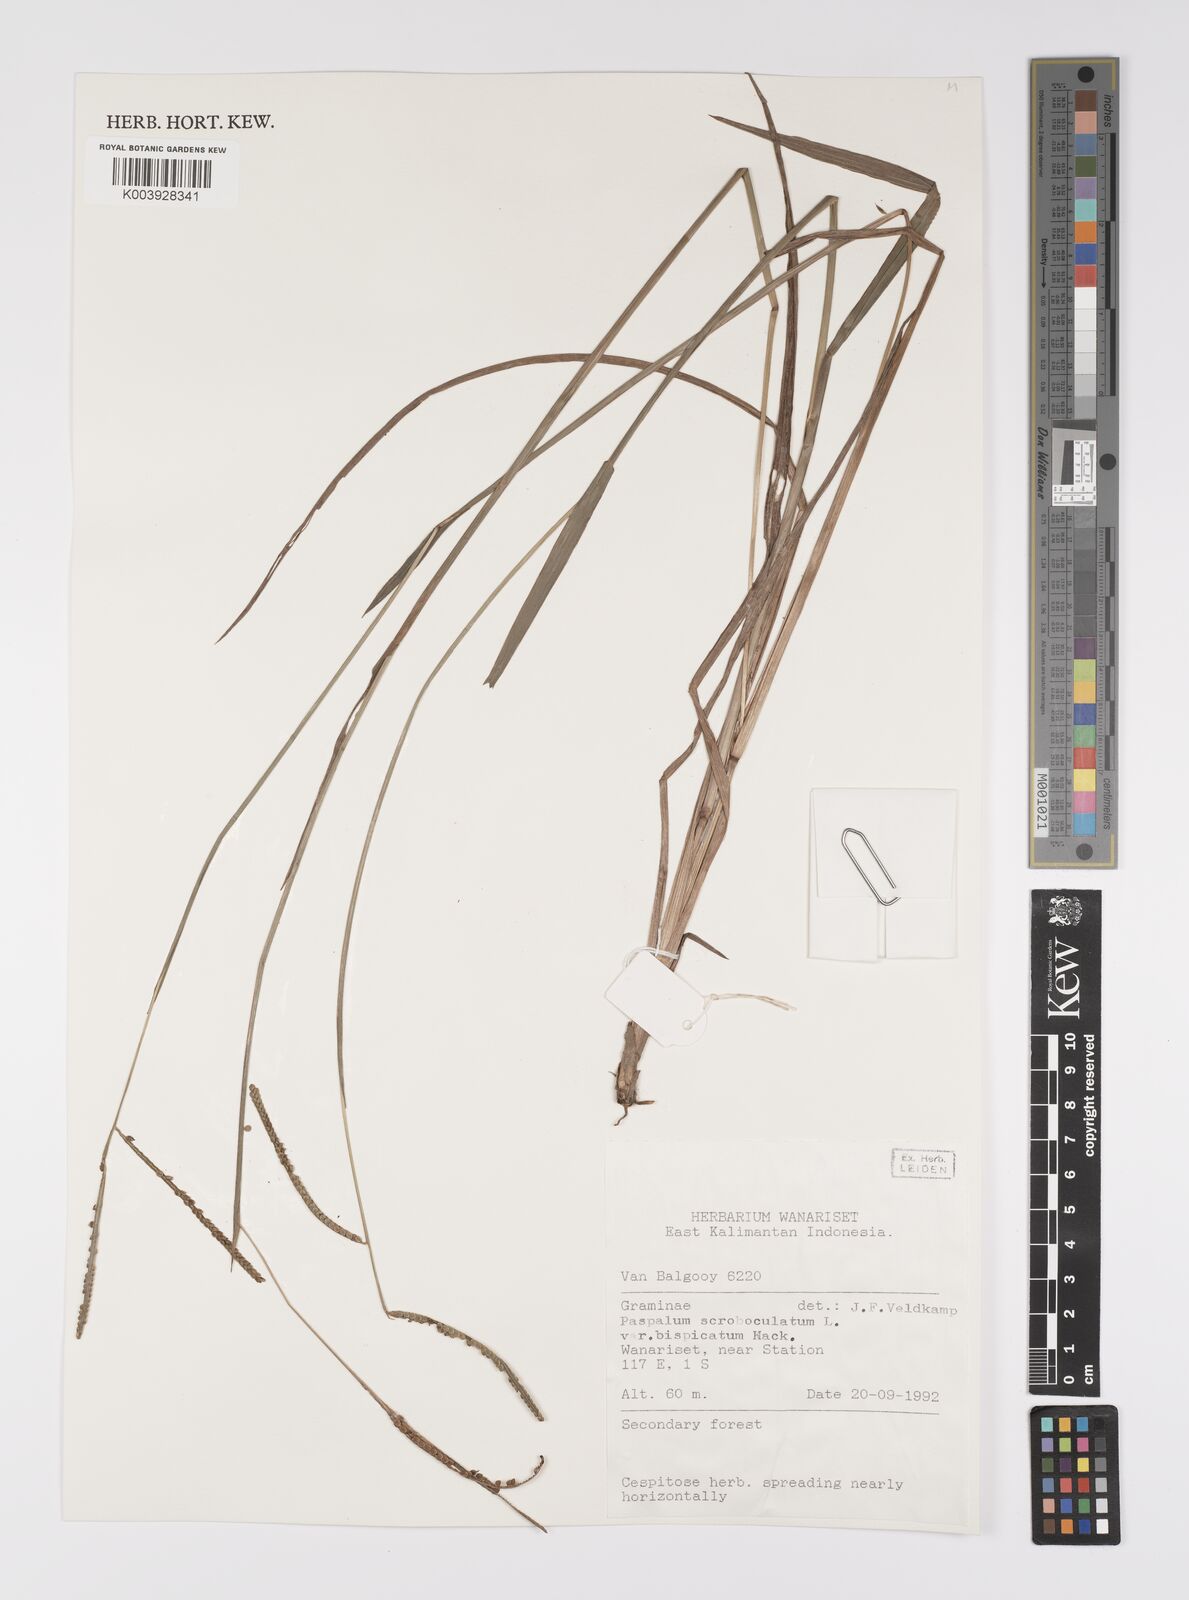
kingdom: Plantae
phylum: Tracheophyta
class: Liliopsida
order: Poales
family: Poaceae
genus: Paspalum
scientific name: Paspalum conjugatum
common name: Hilograss
